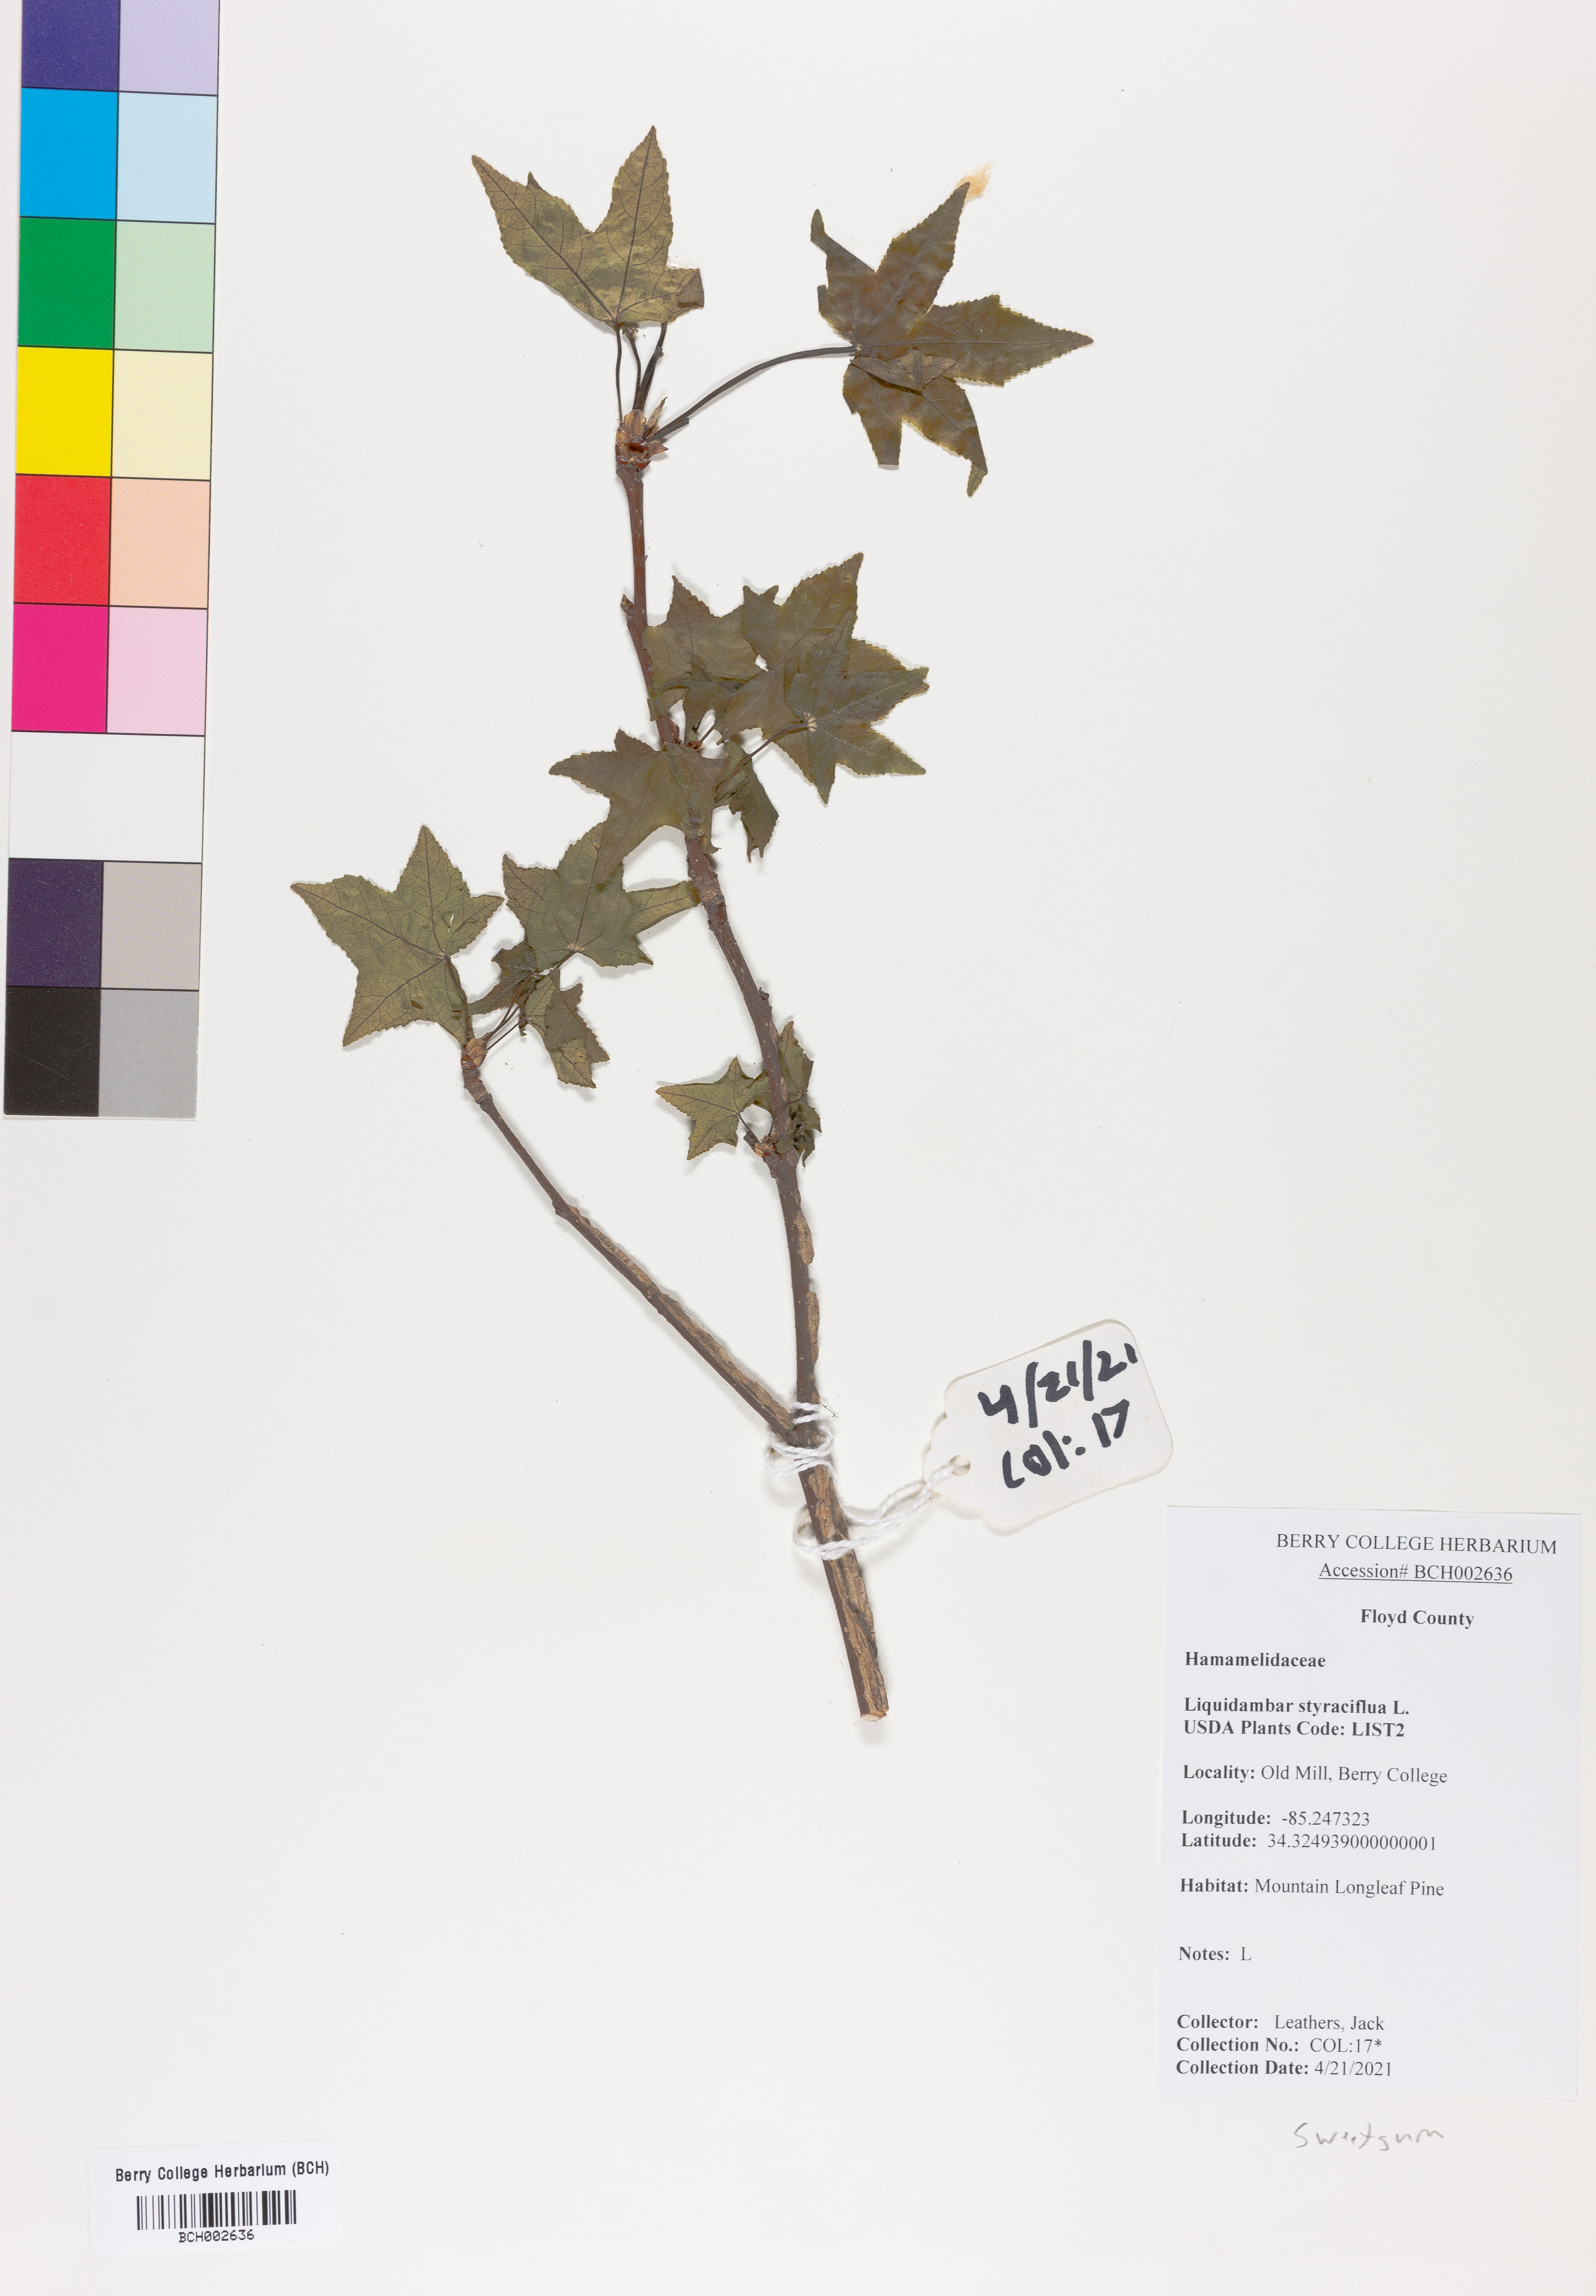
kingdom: Plantae
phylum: Tracheophyta
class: Magnoliopsida
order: Saxifragales
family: Altingiaceae
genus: Liquidambar
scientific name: Liquidambar styraciflua
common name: Sweet gum
